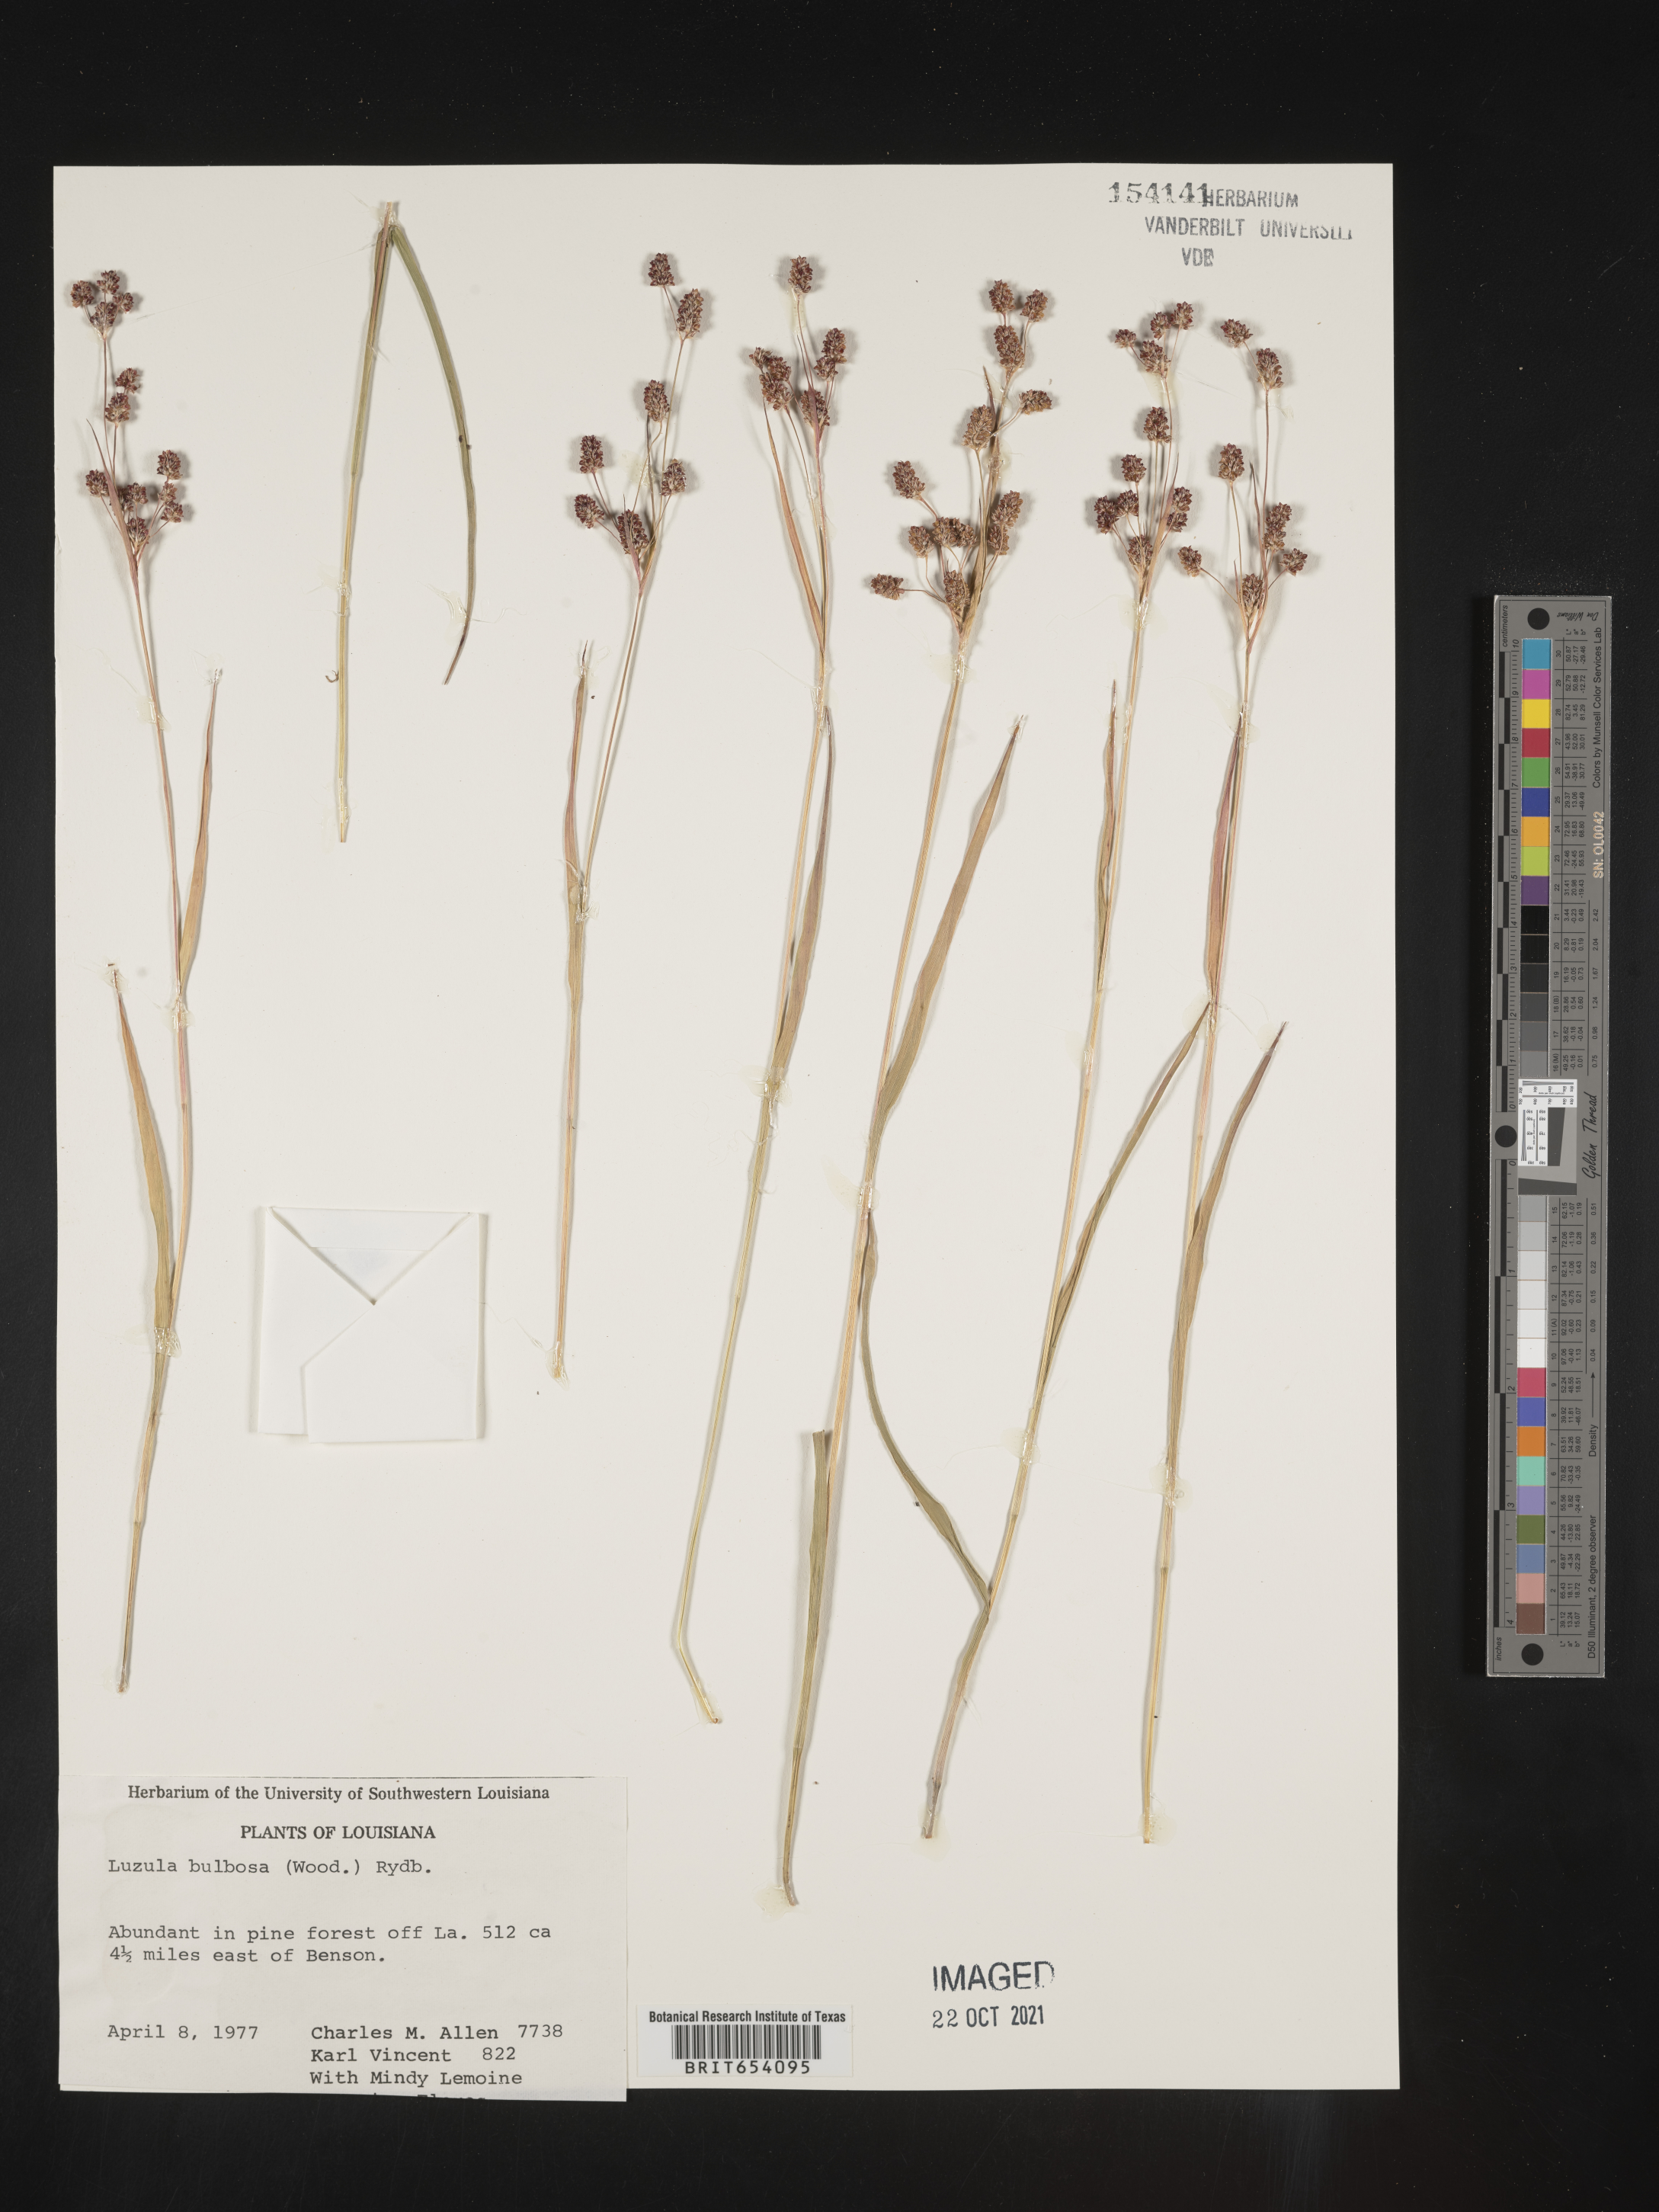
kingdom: Plantae
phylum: Tracheophyta
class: Liliopsida
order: Poales
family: Juncaceae
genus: Luzula
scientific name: Luzula bulbosa
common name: Bulbous woodrush
